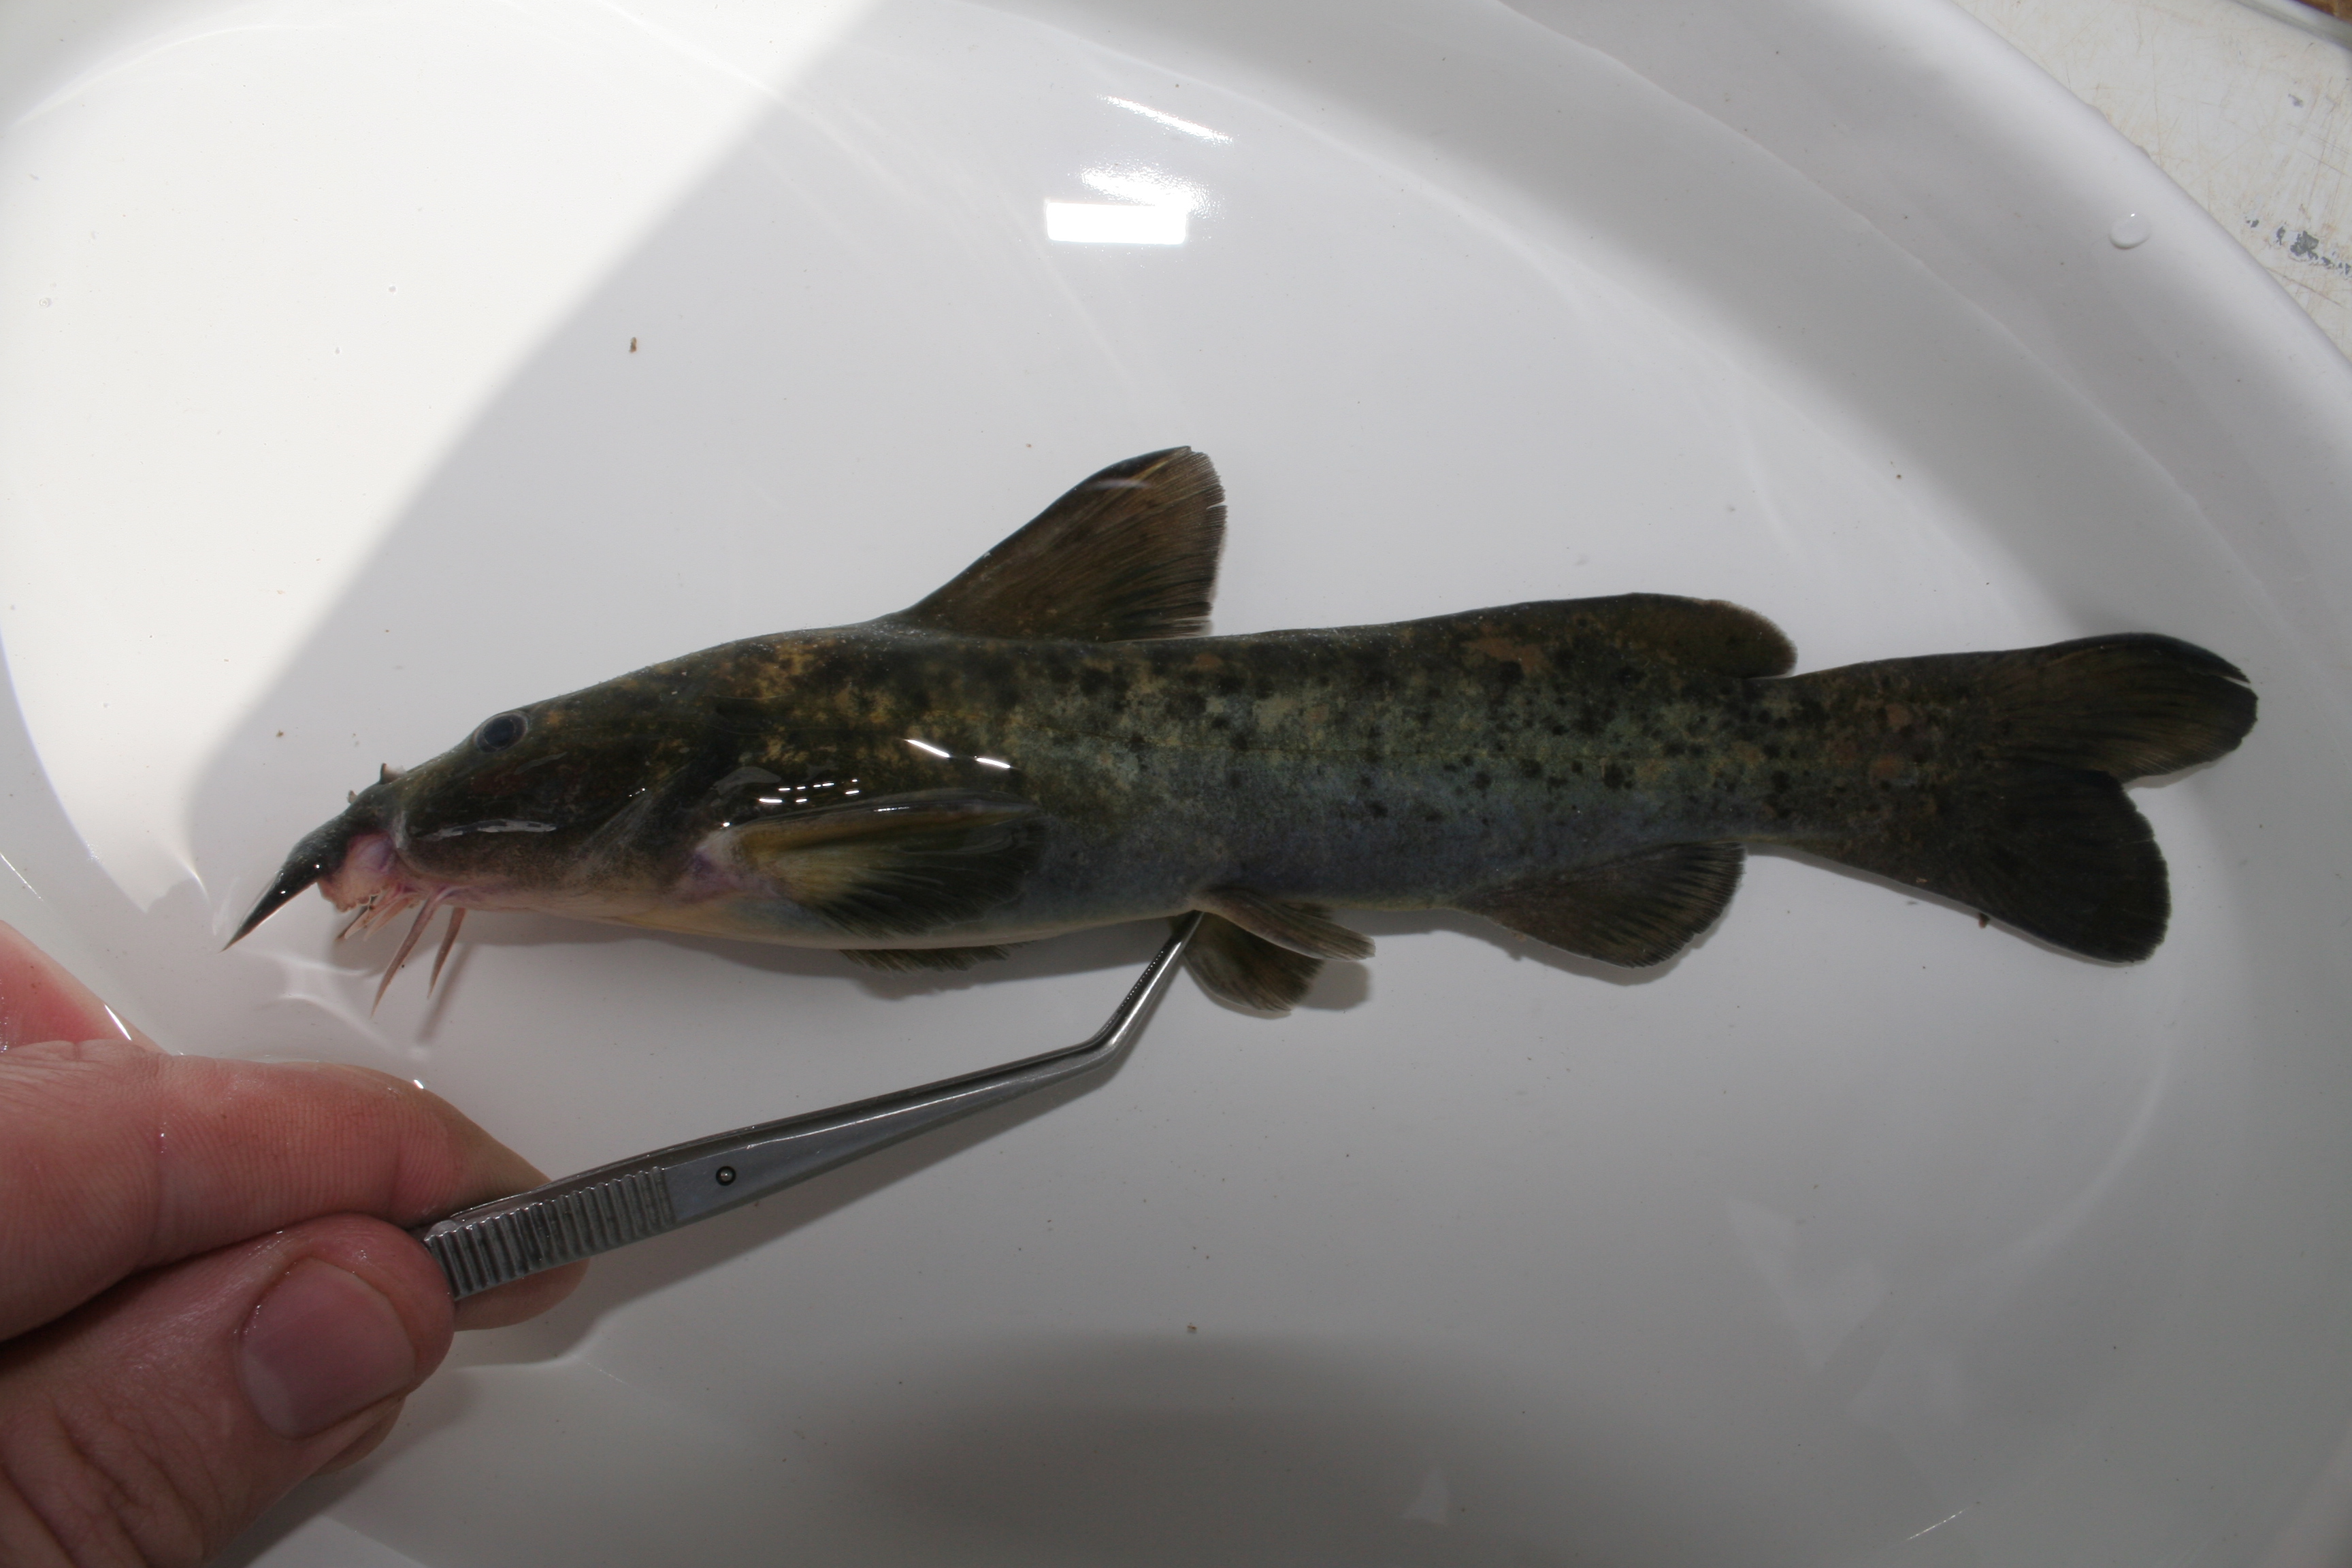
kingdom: Animalia
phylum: Chordata
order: Siluriformes
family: Austroglanididae
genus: Austroglanis
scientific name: Austroglanis sclateri
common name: Rock catfish
